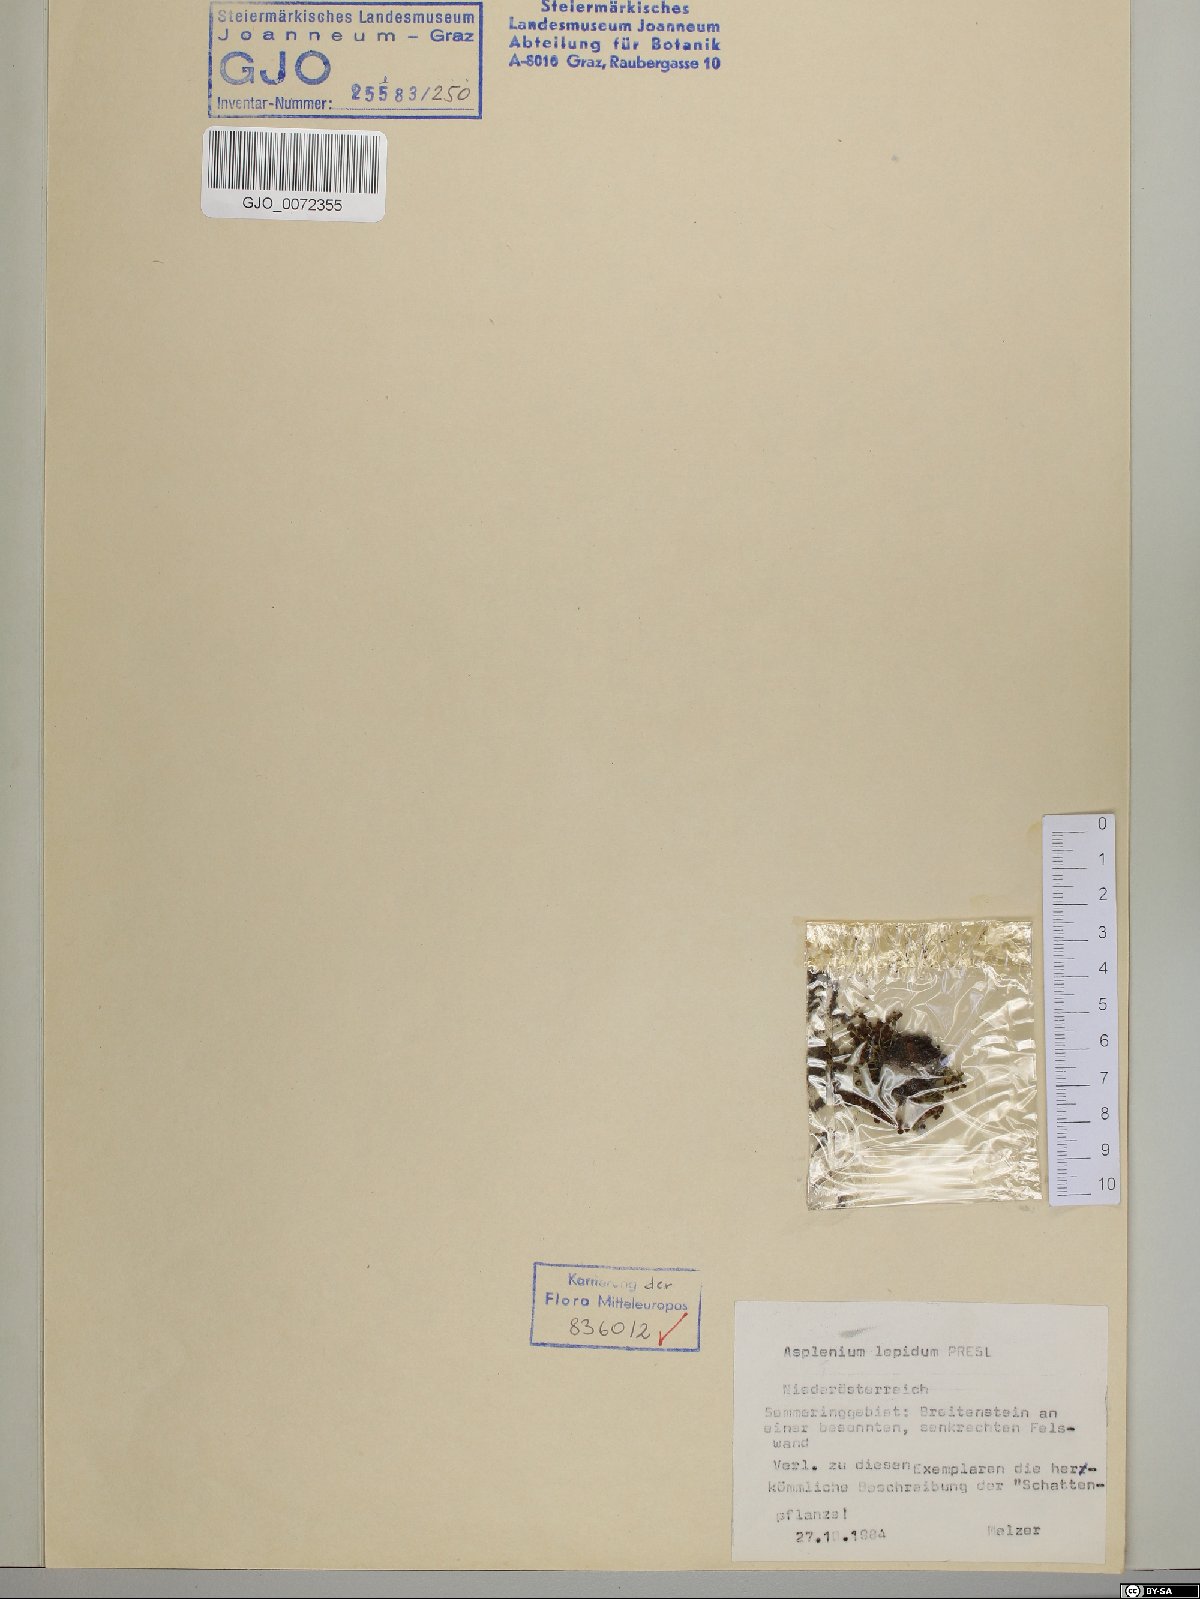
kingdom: Plantae
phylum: Tracheophyta
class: Polypodiopsida
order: Polypodiales
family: Aspleniaceae
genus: Asplenium
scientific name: Asplenium lepidum
